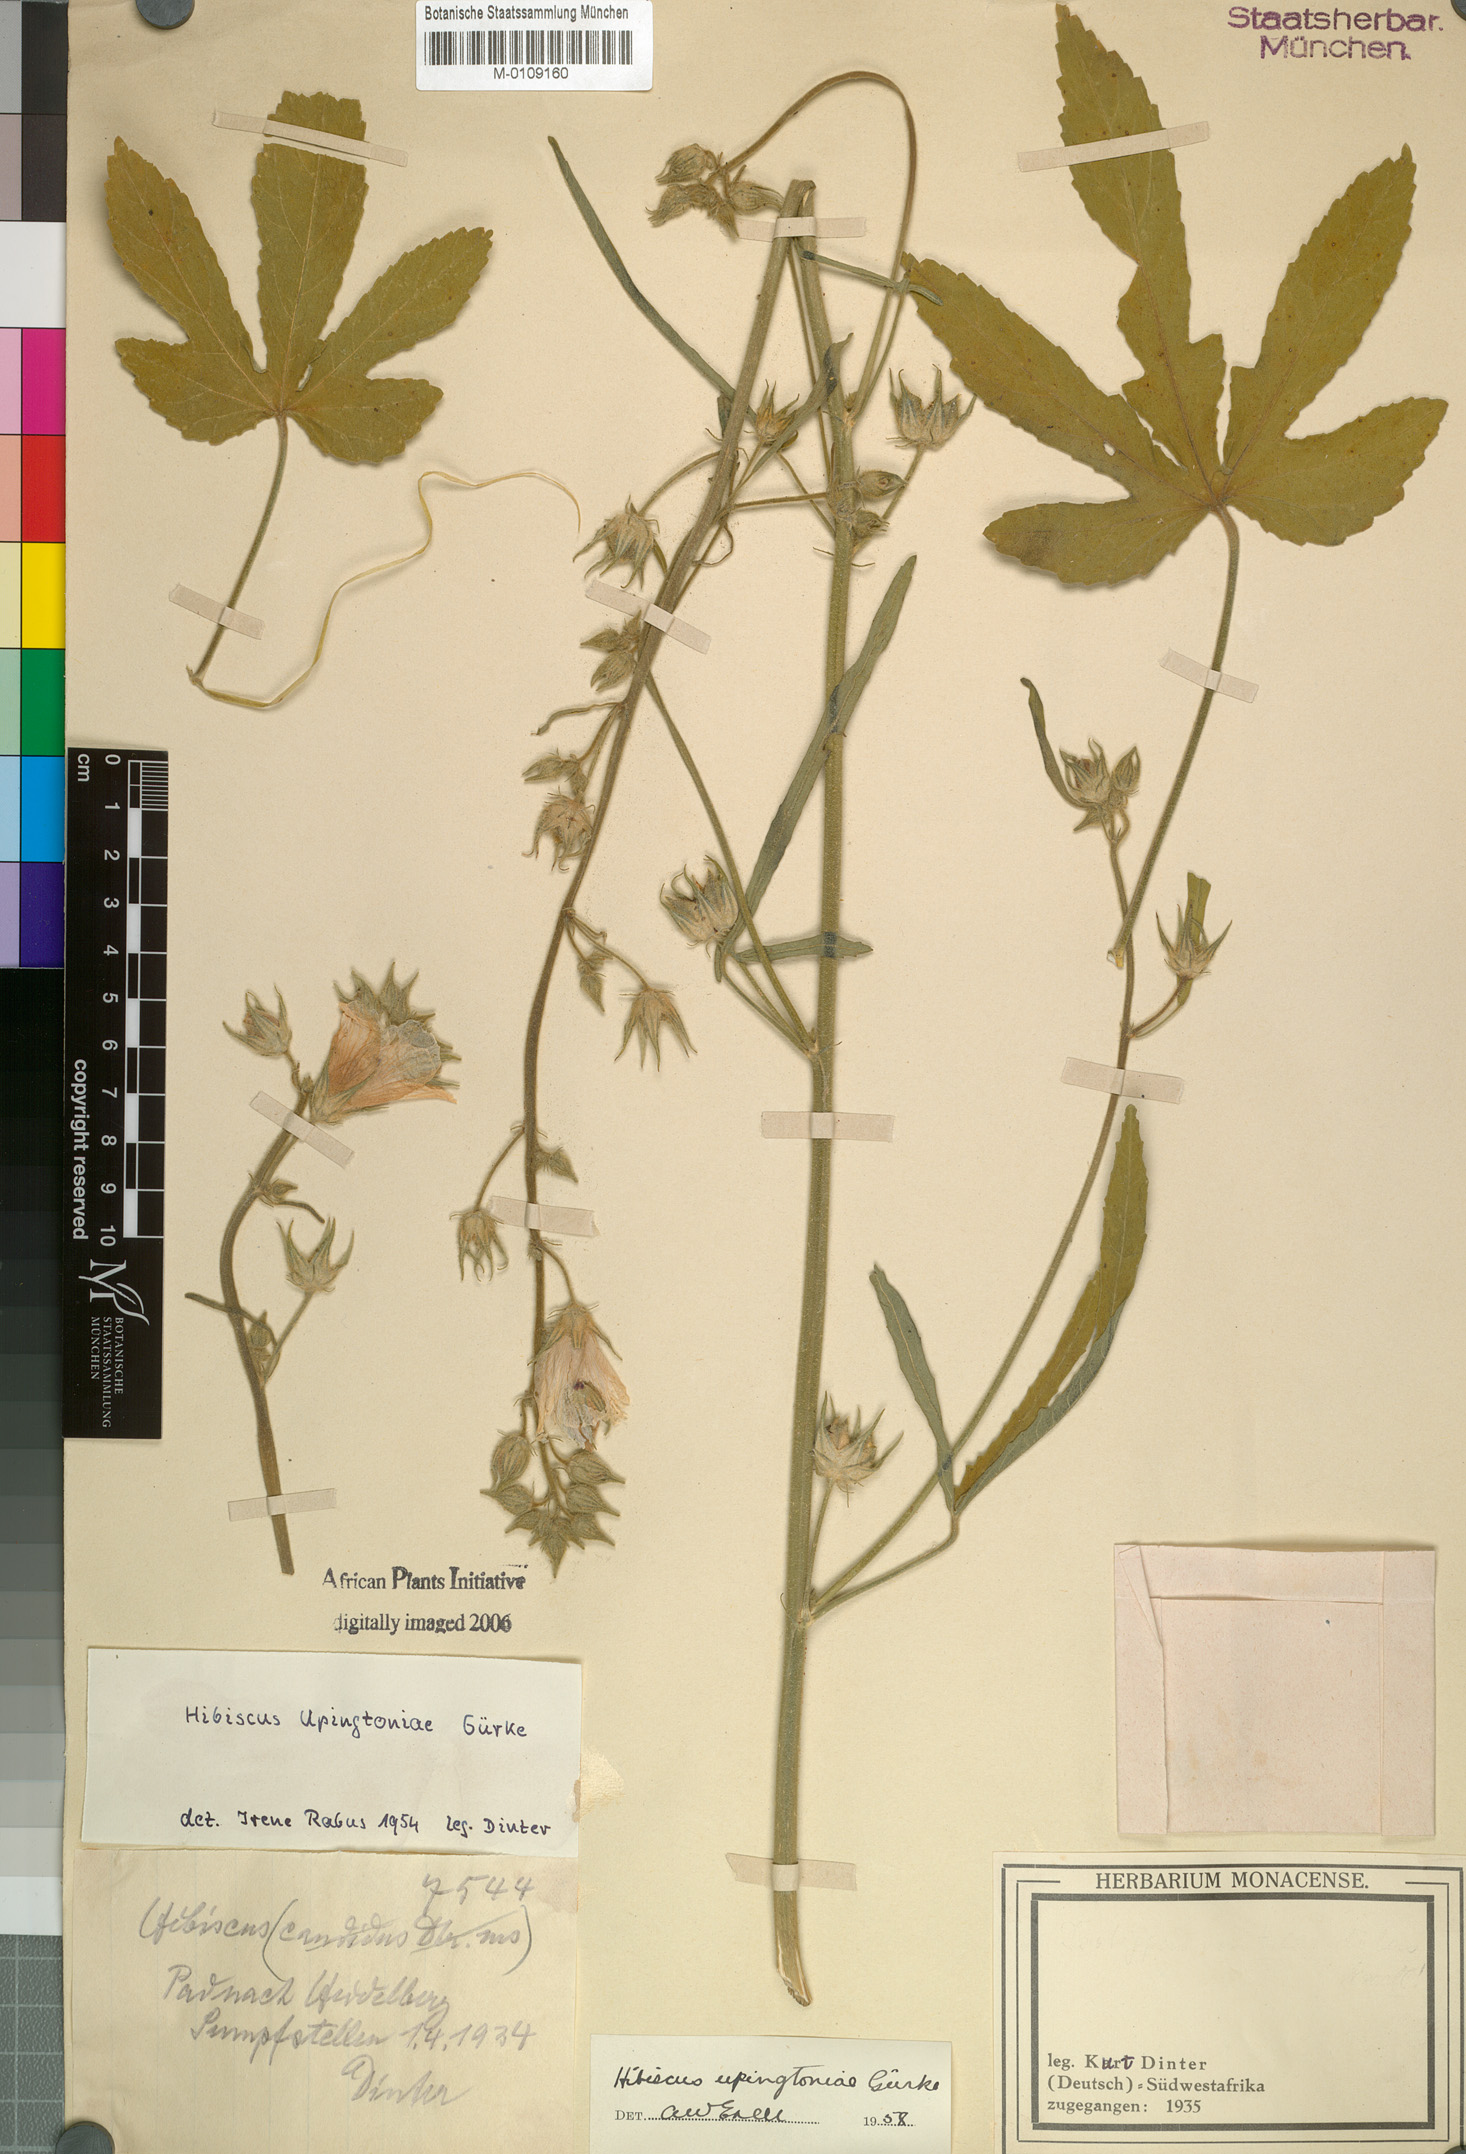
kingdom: Plantae
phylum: Tracheophyta
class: Magnoliopsida
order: Malvales
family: Malvaceae
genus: Hibiscus
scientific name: Hibiscus upingtoniae
